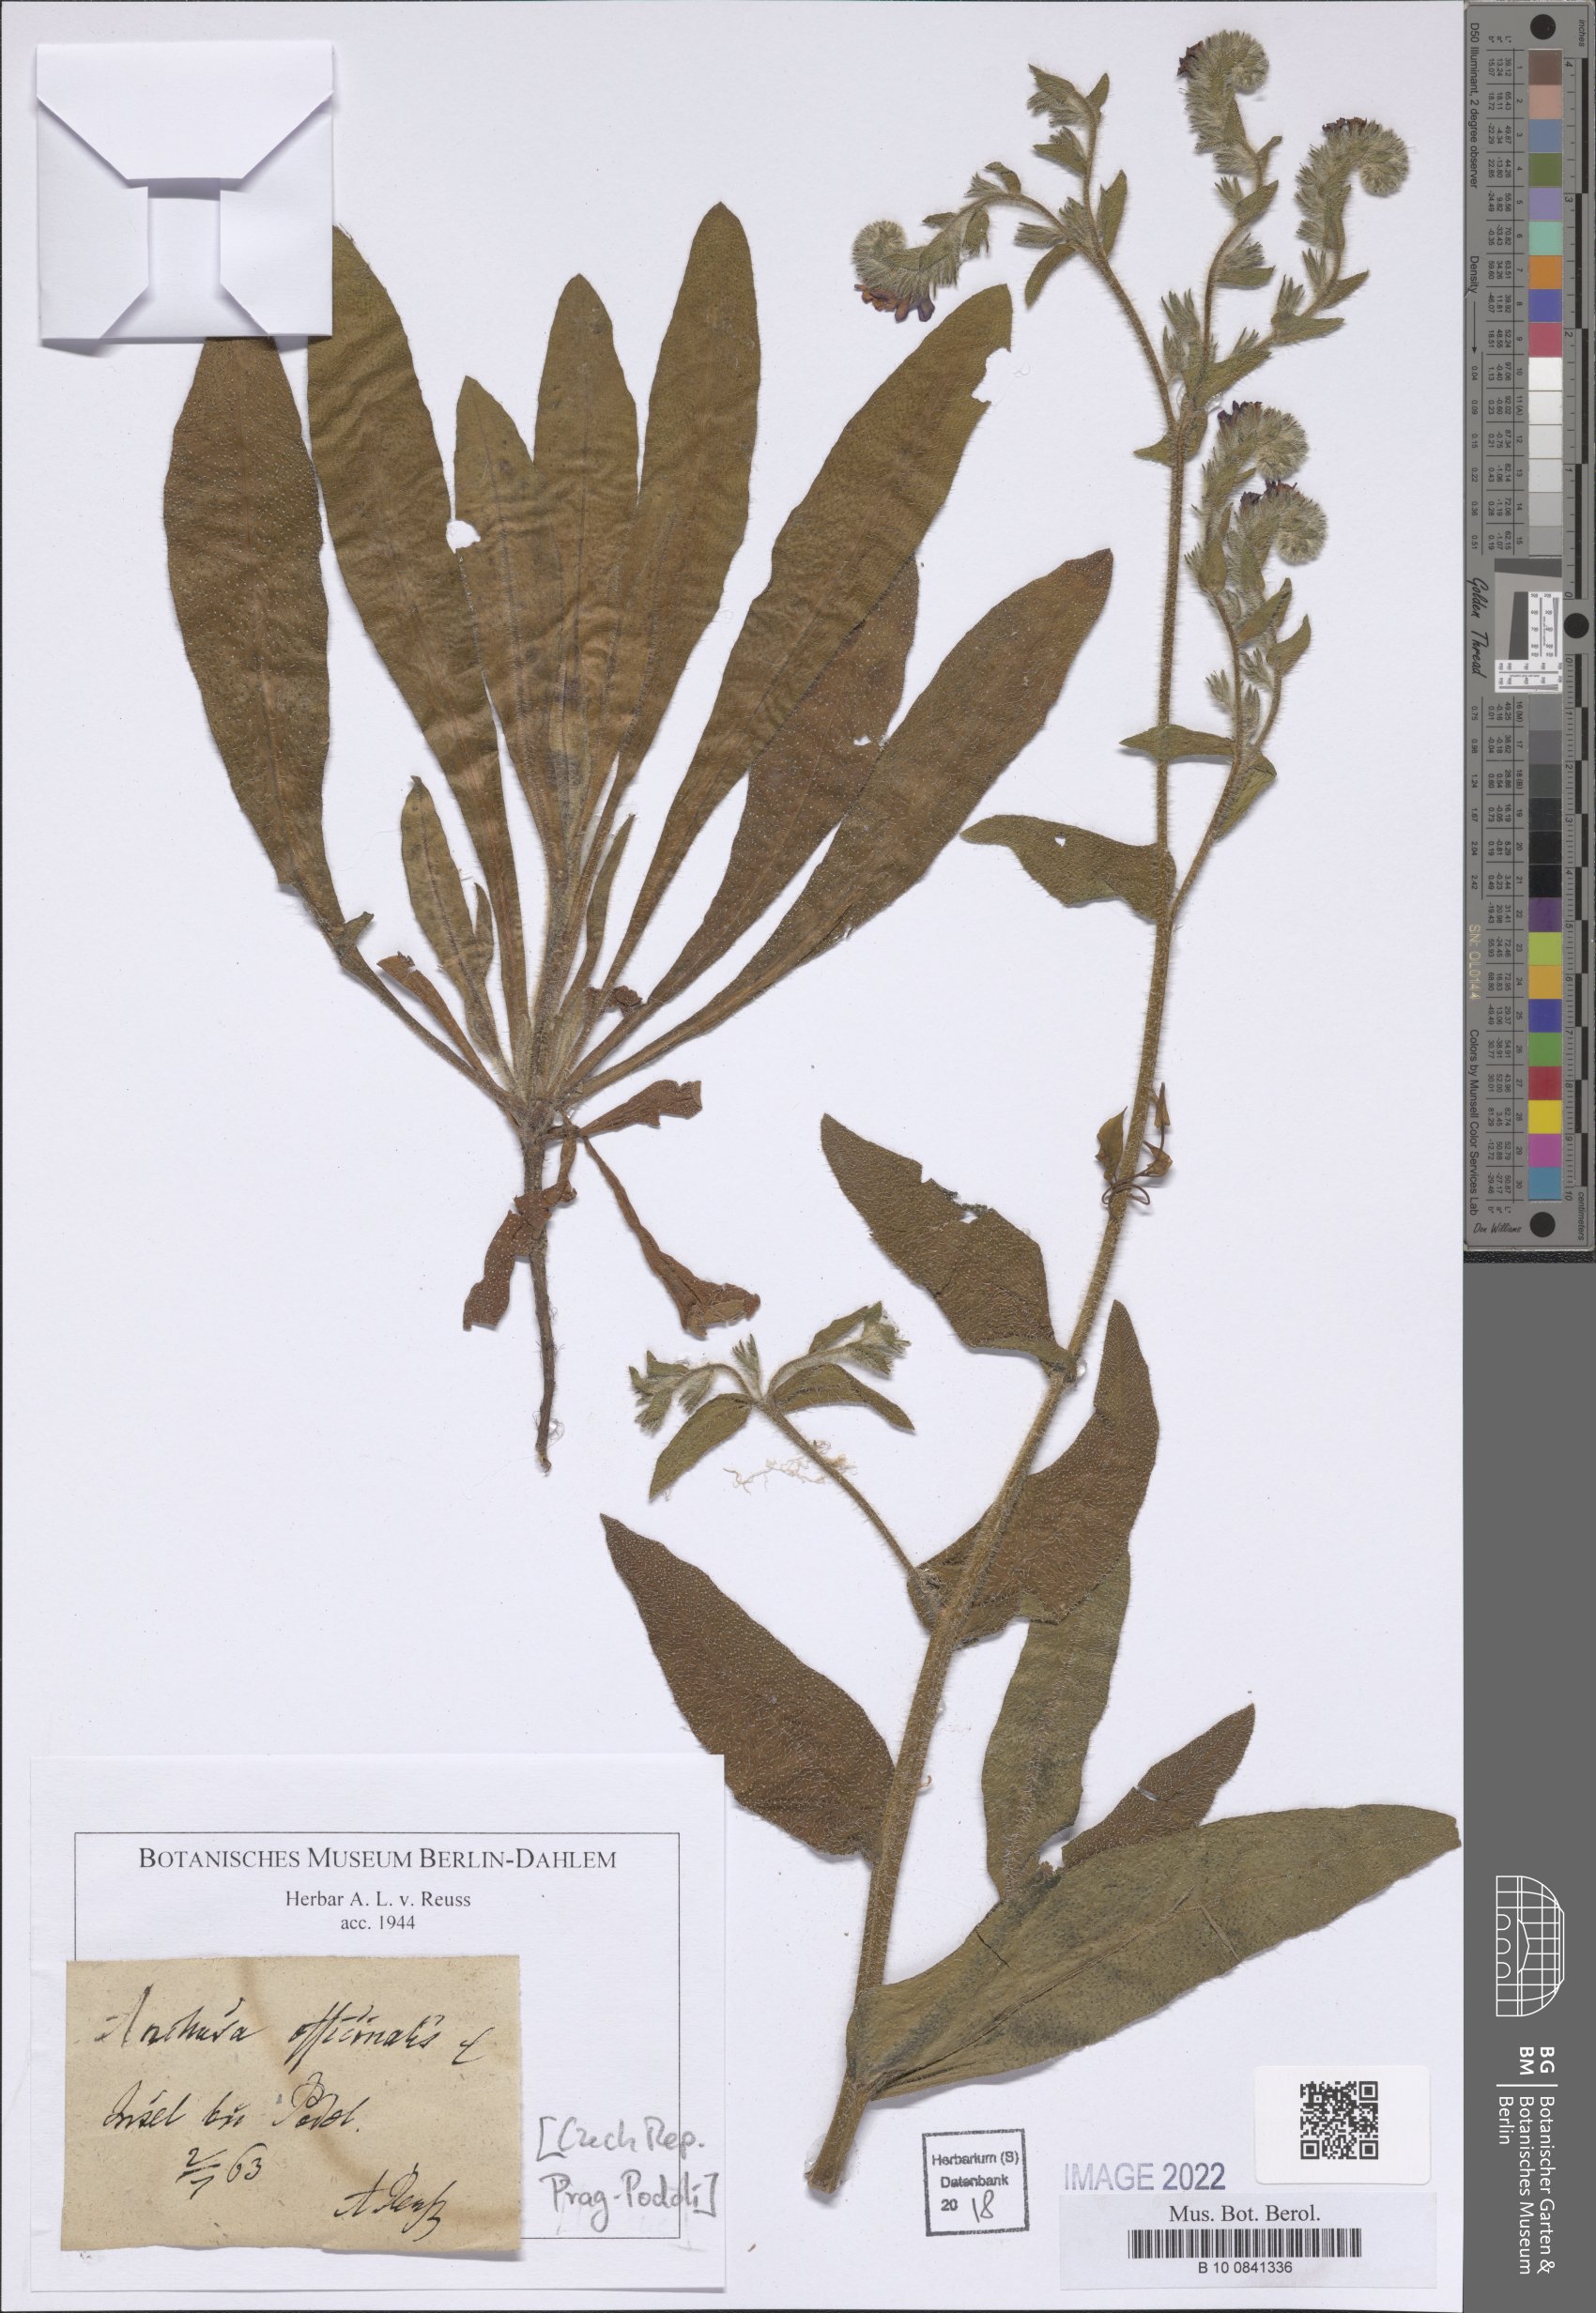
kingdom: Plantae
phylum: Tracheophyta
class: Magnoliopsida
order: Boraginales
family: Boraginaceae
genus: Anchusa
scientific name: Anchusa officinalis
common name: Alkanet
